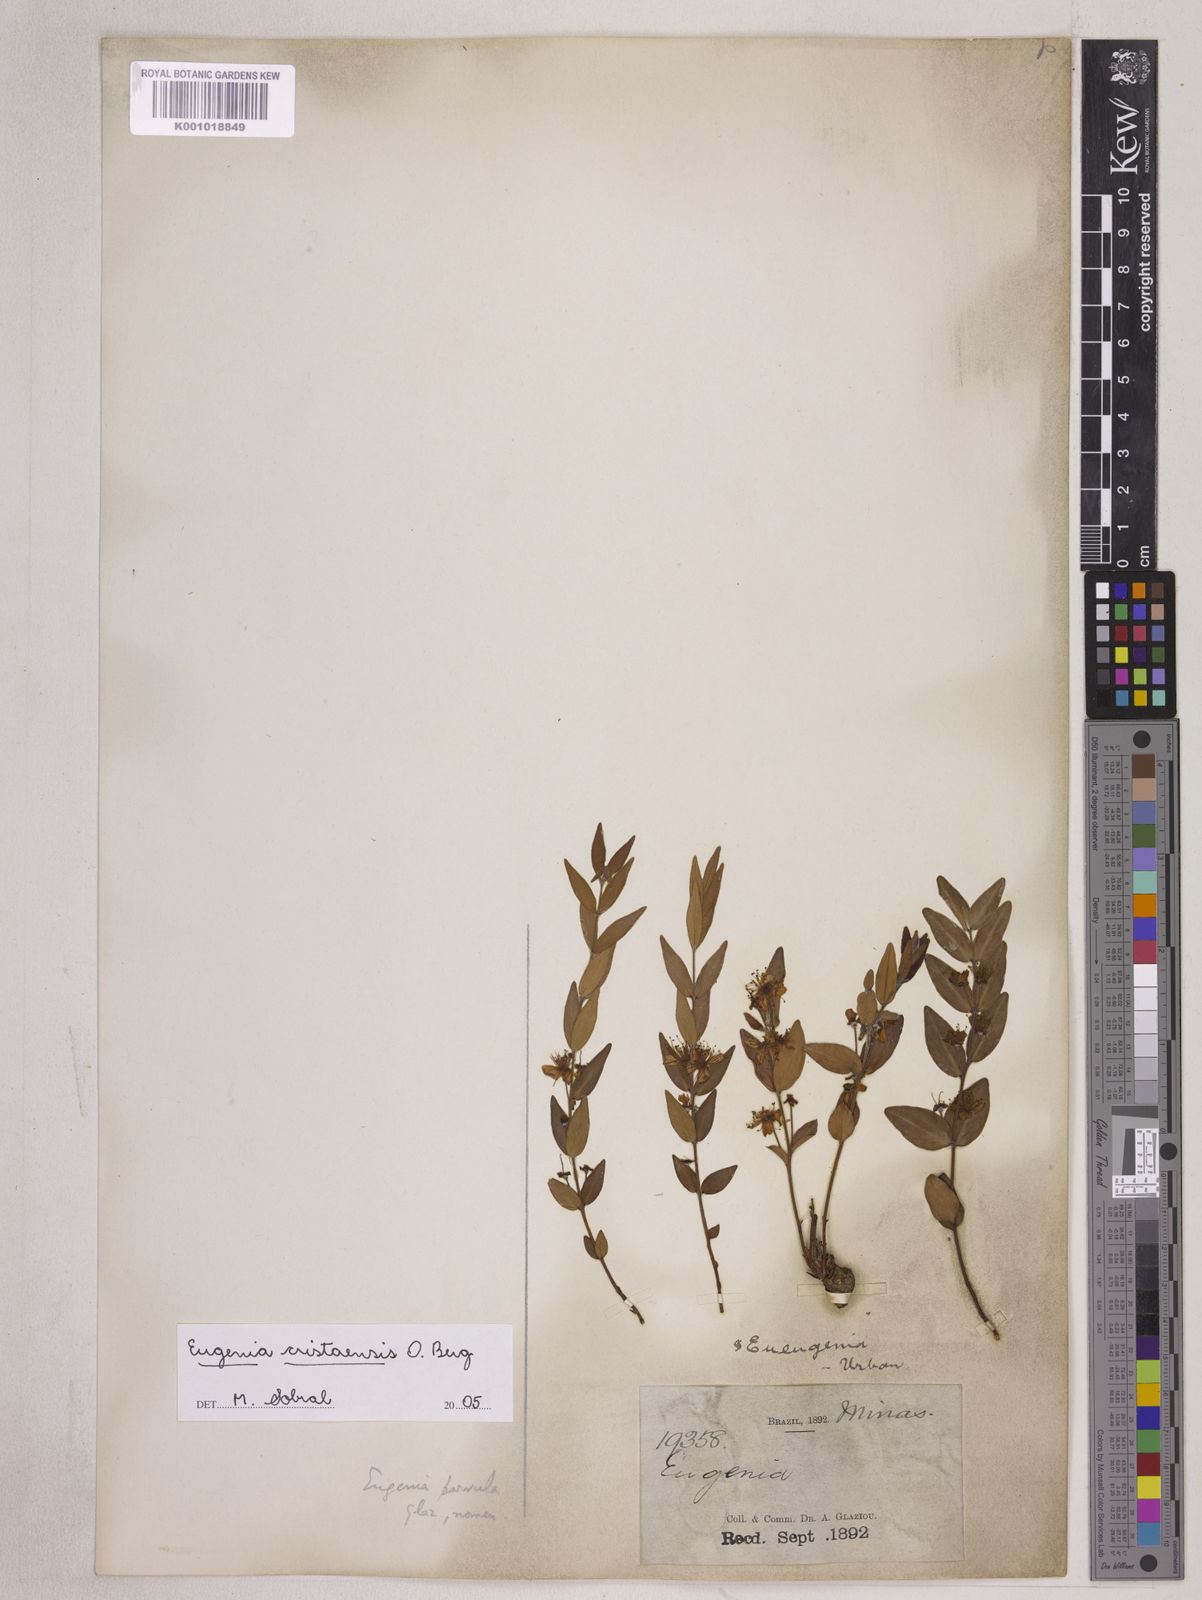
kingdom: Plantae
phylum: Tracheophyta
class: Magnoliopsida
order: Myrtales
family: Myrtaceae
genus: Eugenia
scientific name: Eugenia cristaensis
